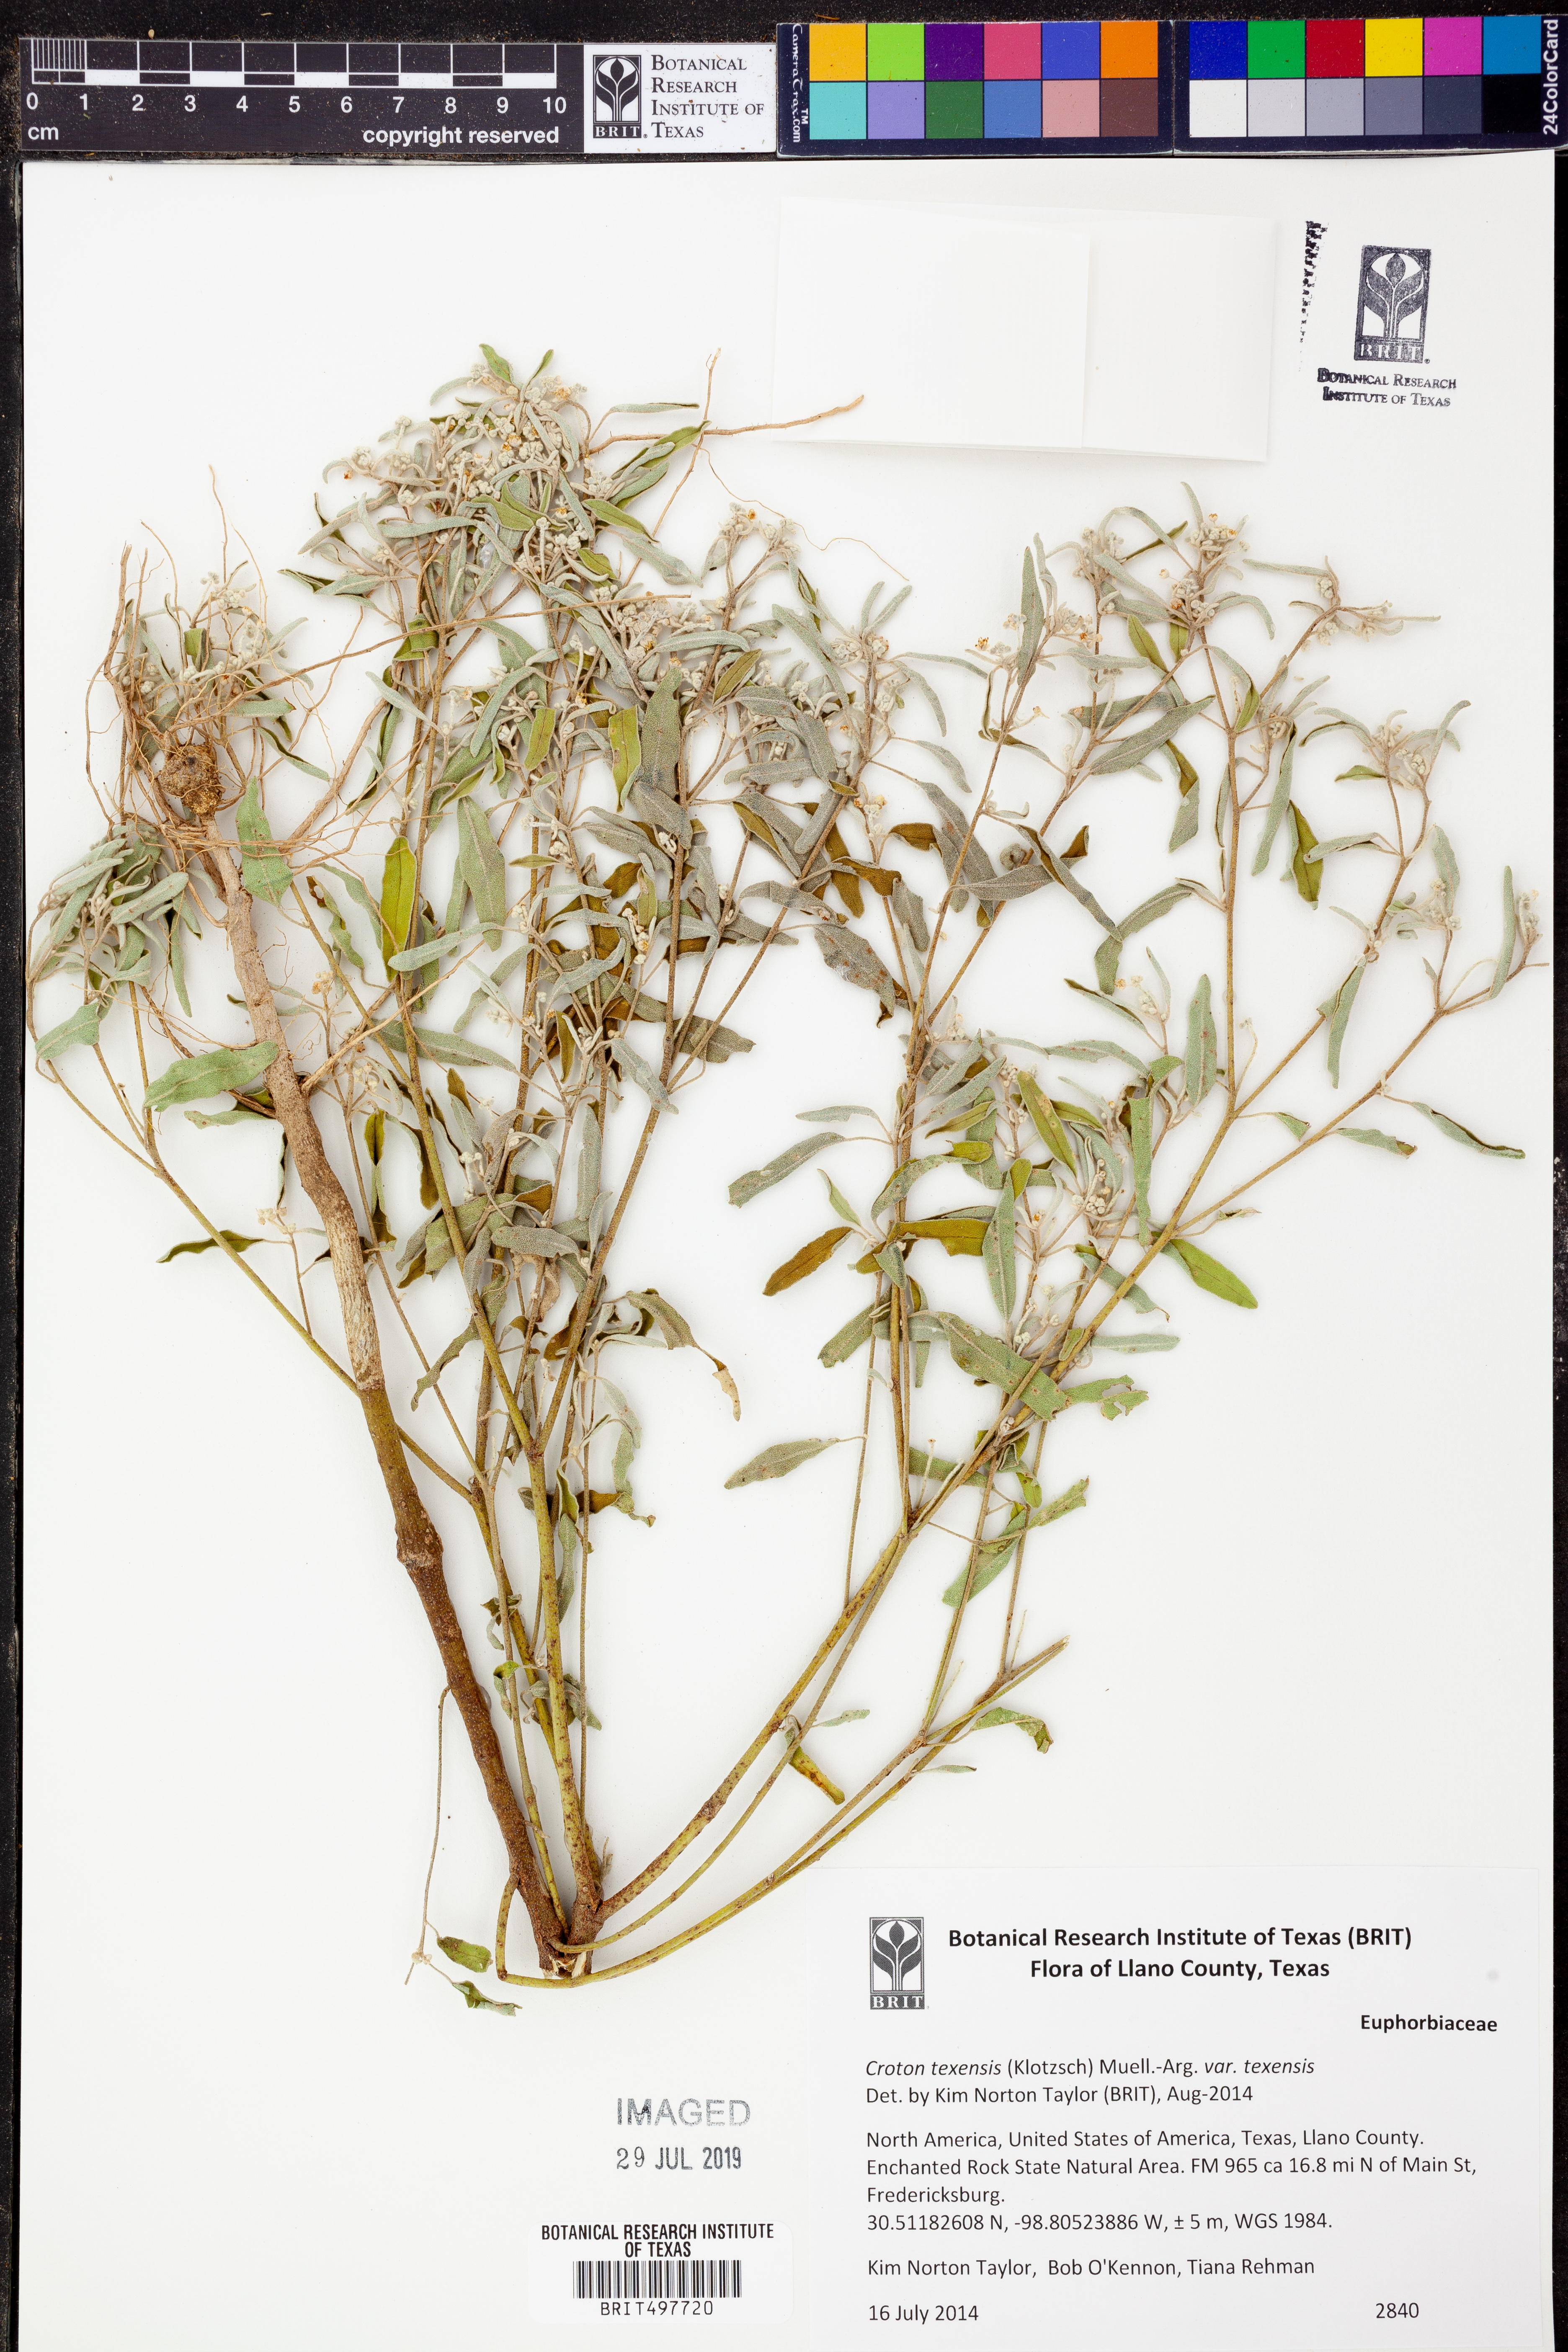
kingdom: Plantae
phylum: Tracheophyta
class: Magnoliopsida
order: Malpighiales
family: Euphorbiaceae
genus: Croton
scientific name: Croton texensis
